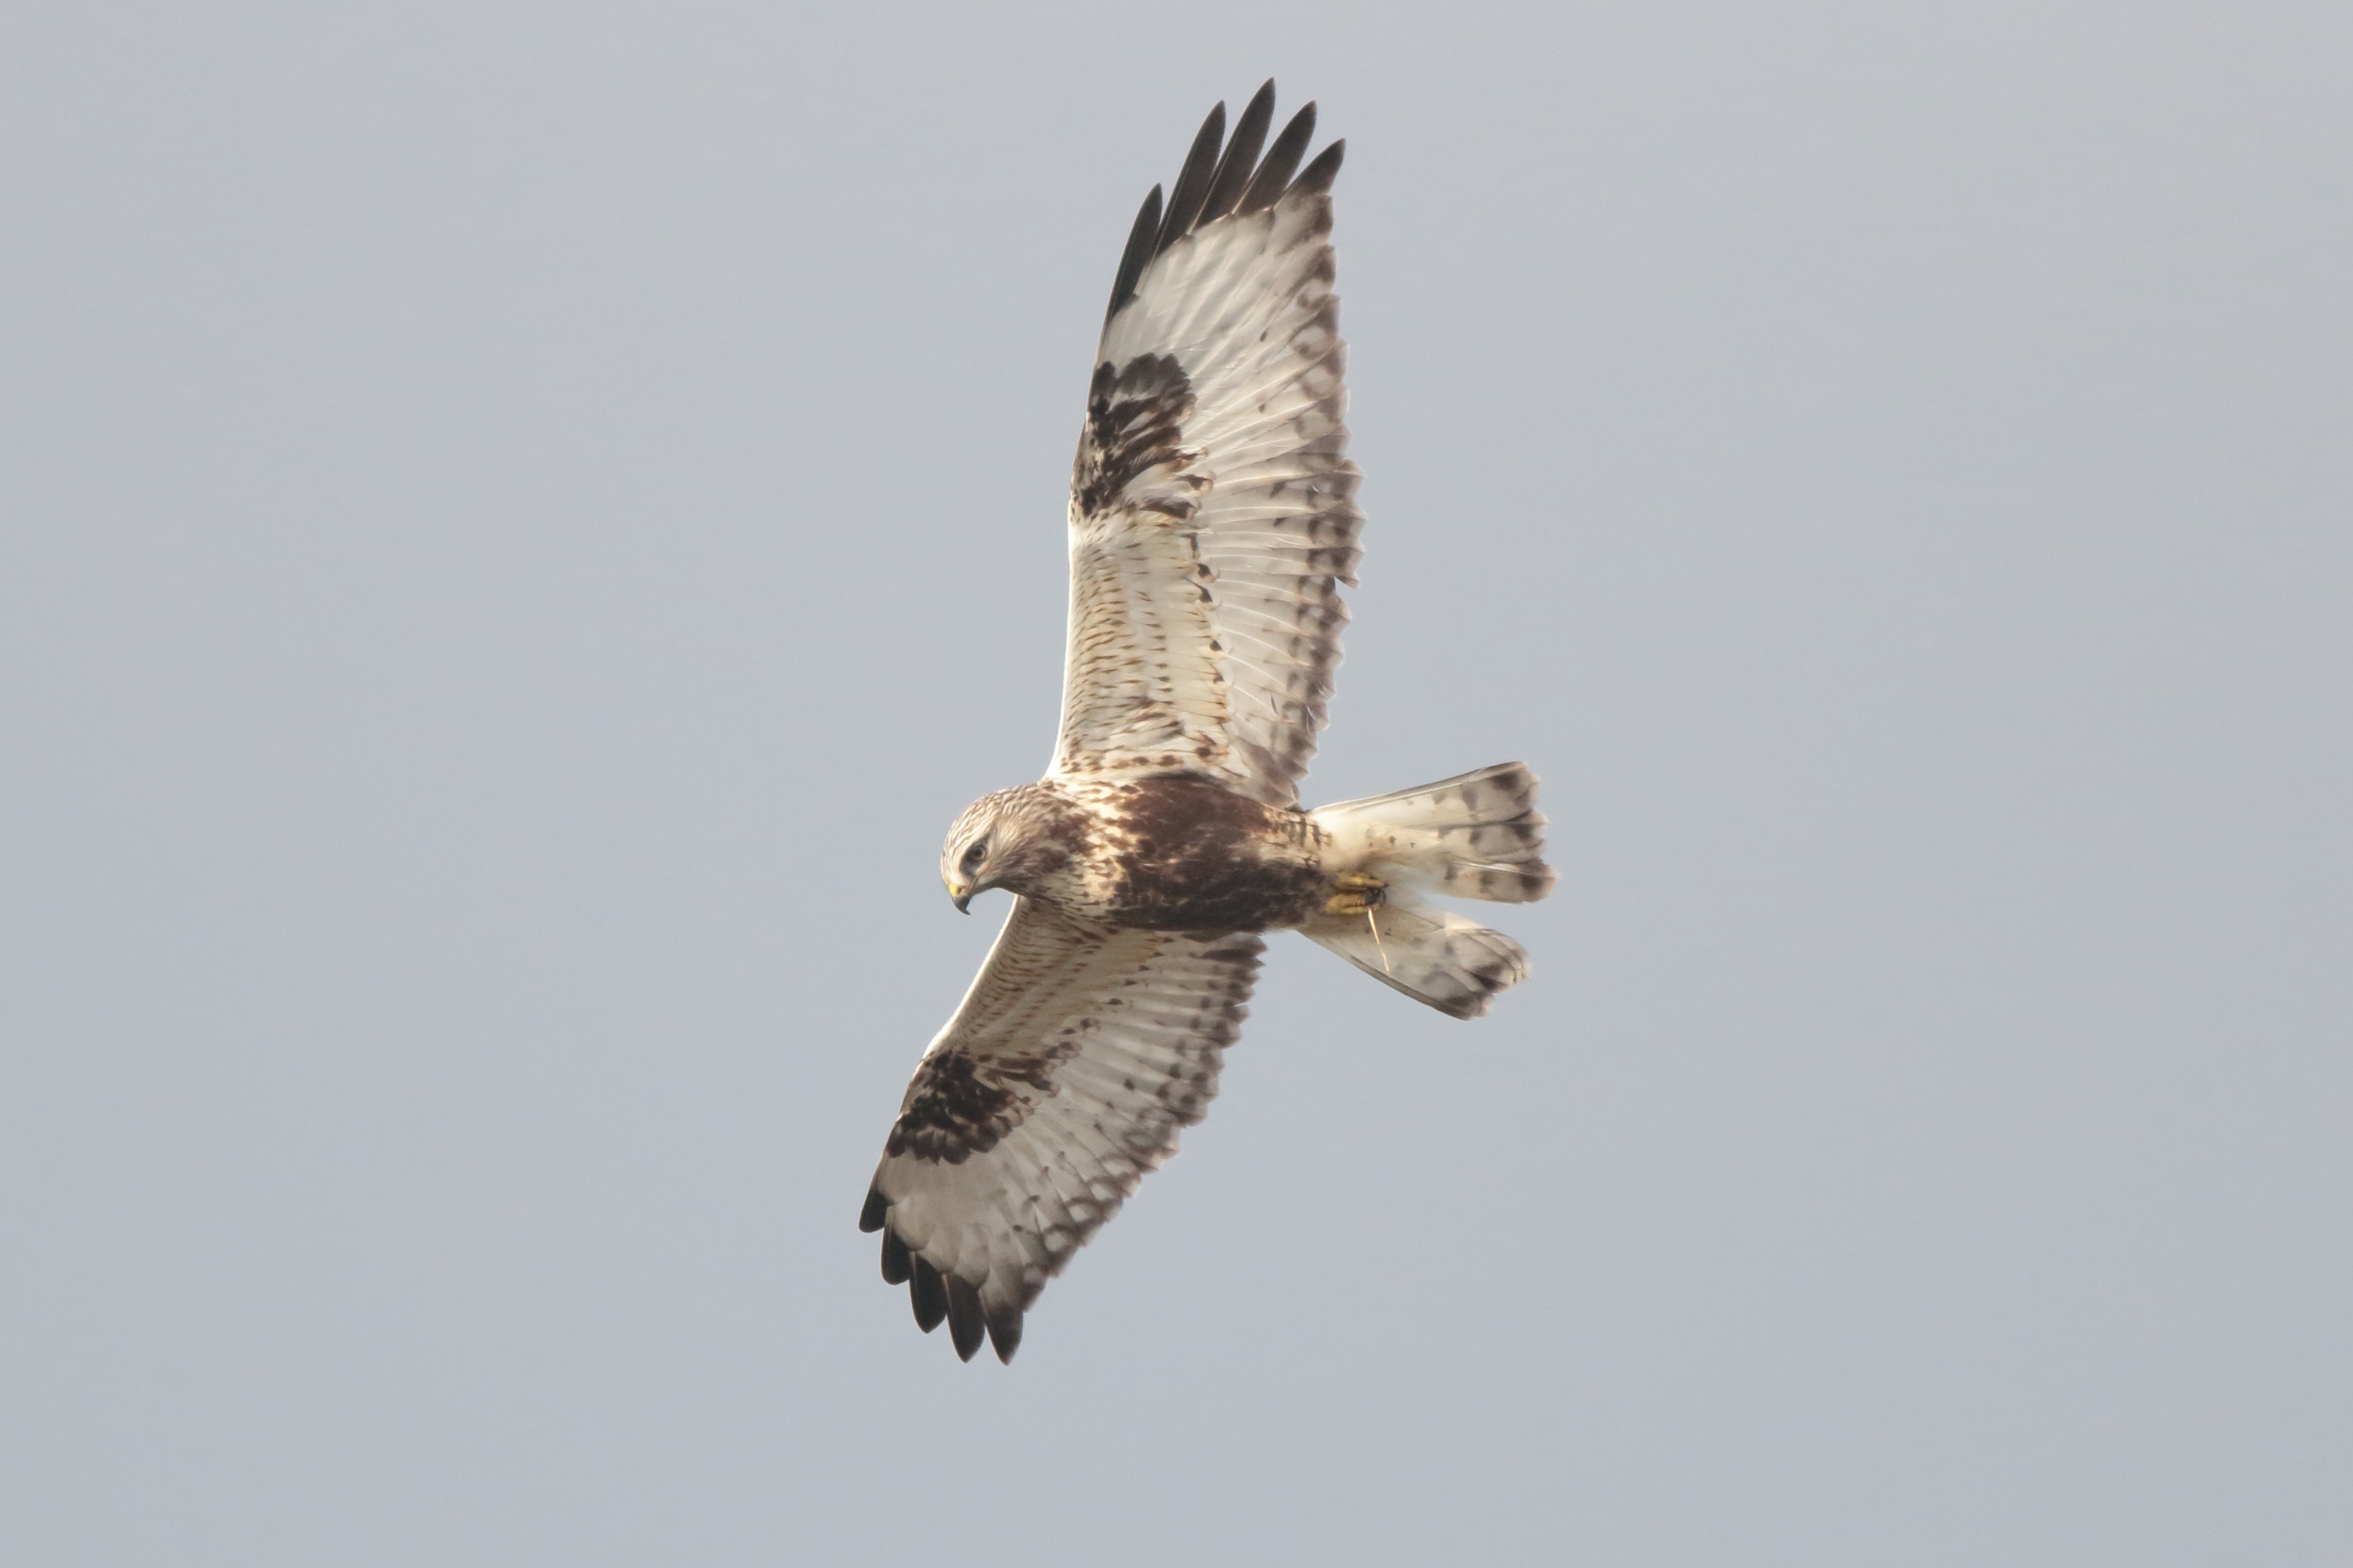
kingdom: Animalia
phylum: Chordata
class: Aves
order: Accipitriformes
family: Accipitridae
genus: Buteo
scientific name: Buteo lagopus
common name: Fjeldvåge
